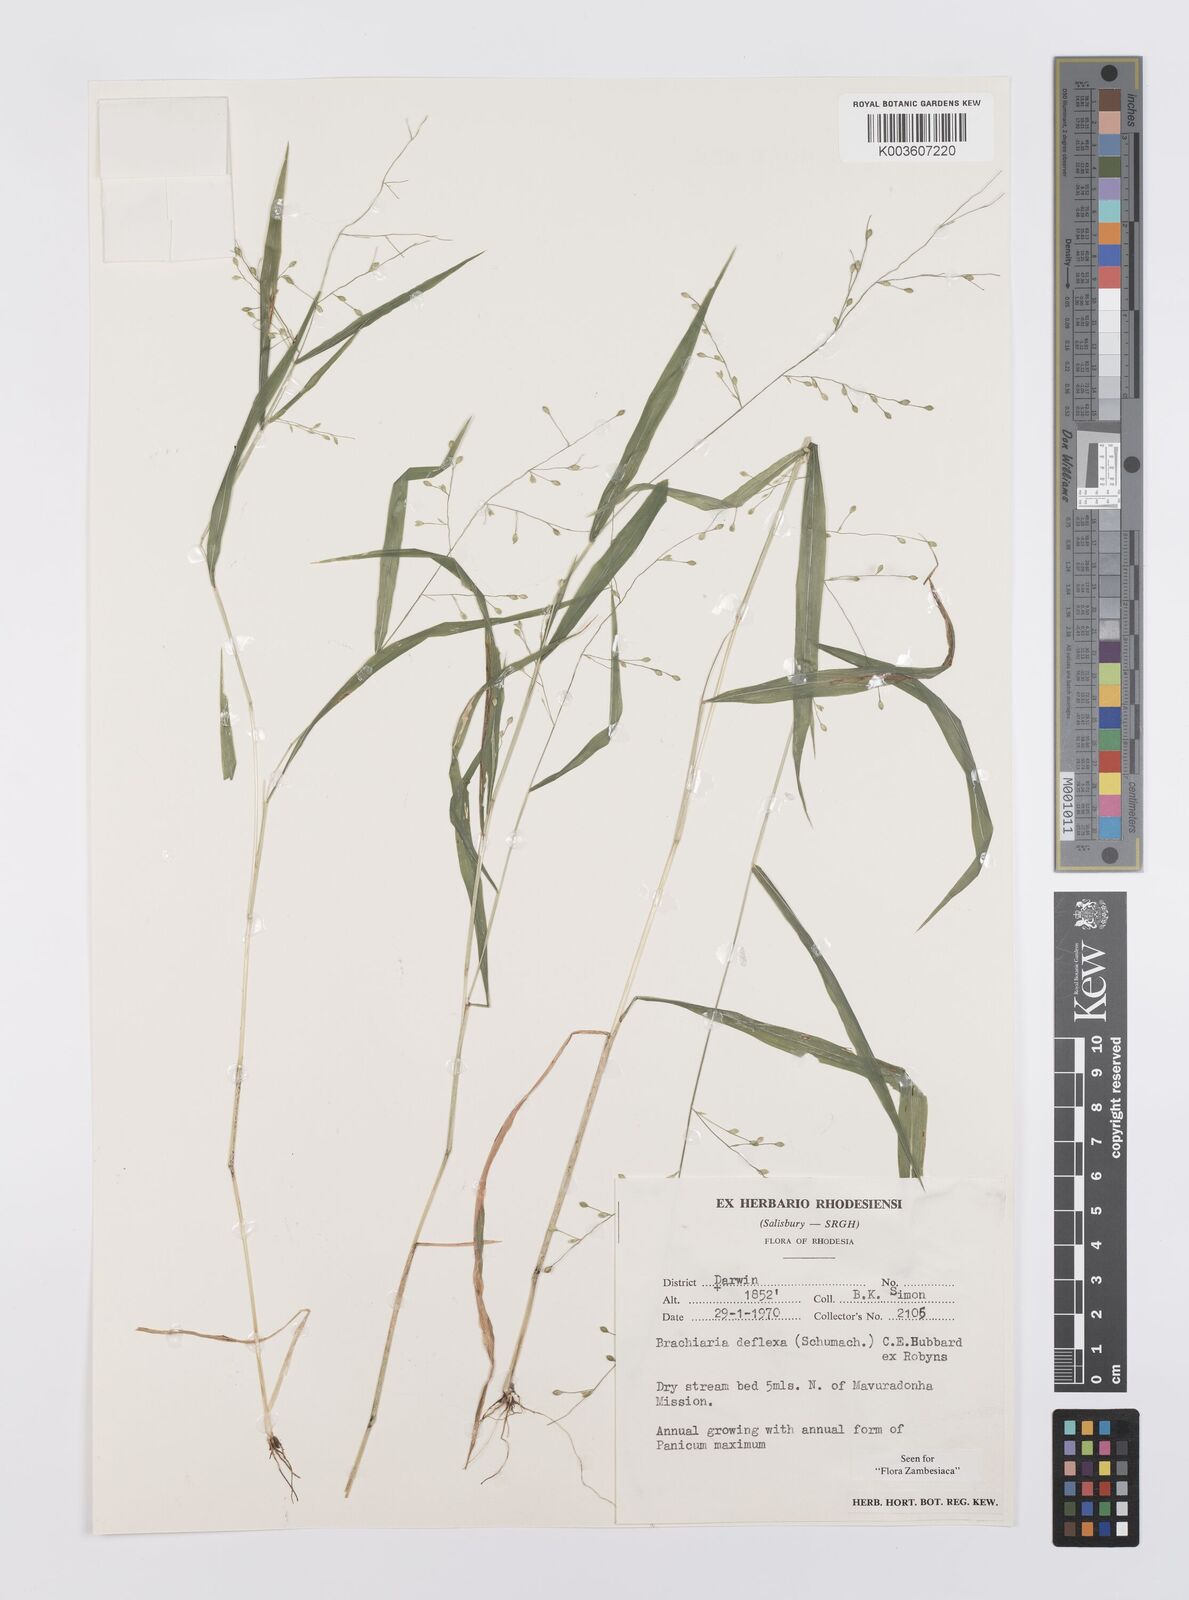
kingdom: Plantae
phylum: Tracheophyta
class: Liliopsida
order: Poales
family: Poaceae
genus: Urochloa
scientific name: Urochloa deflexa
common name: Guinea millet
